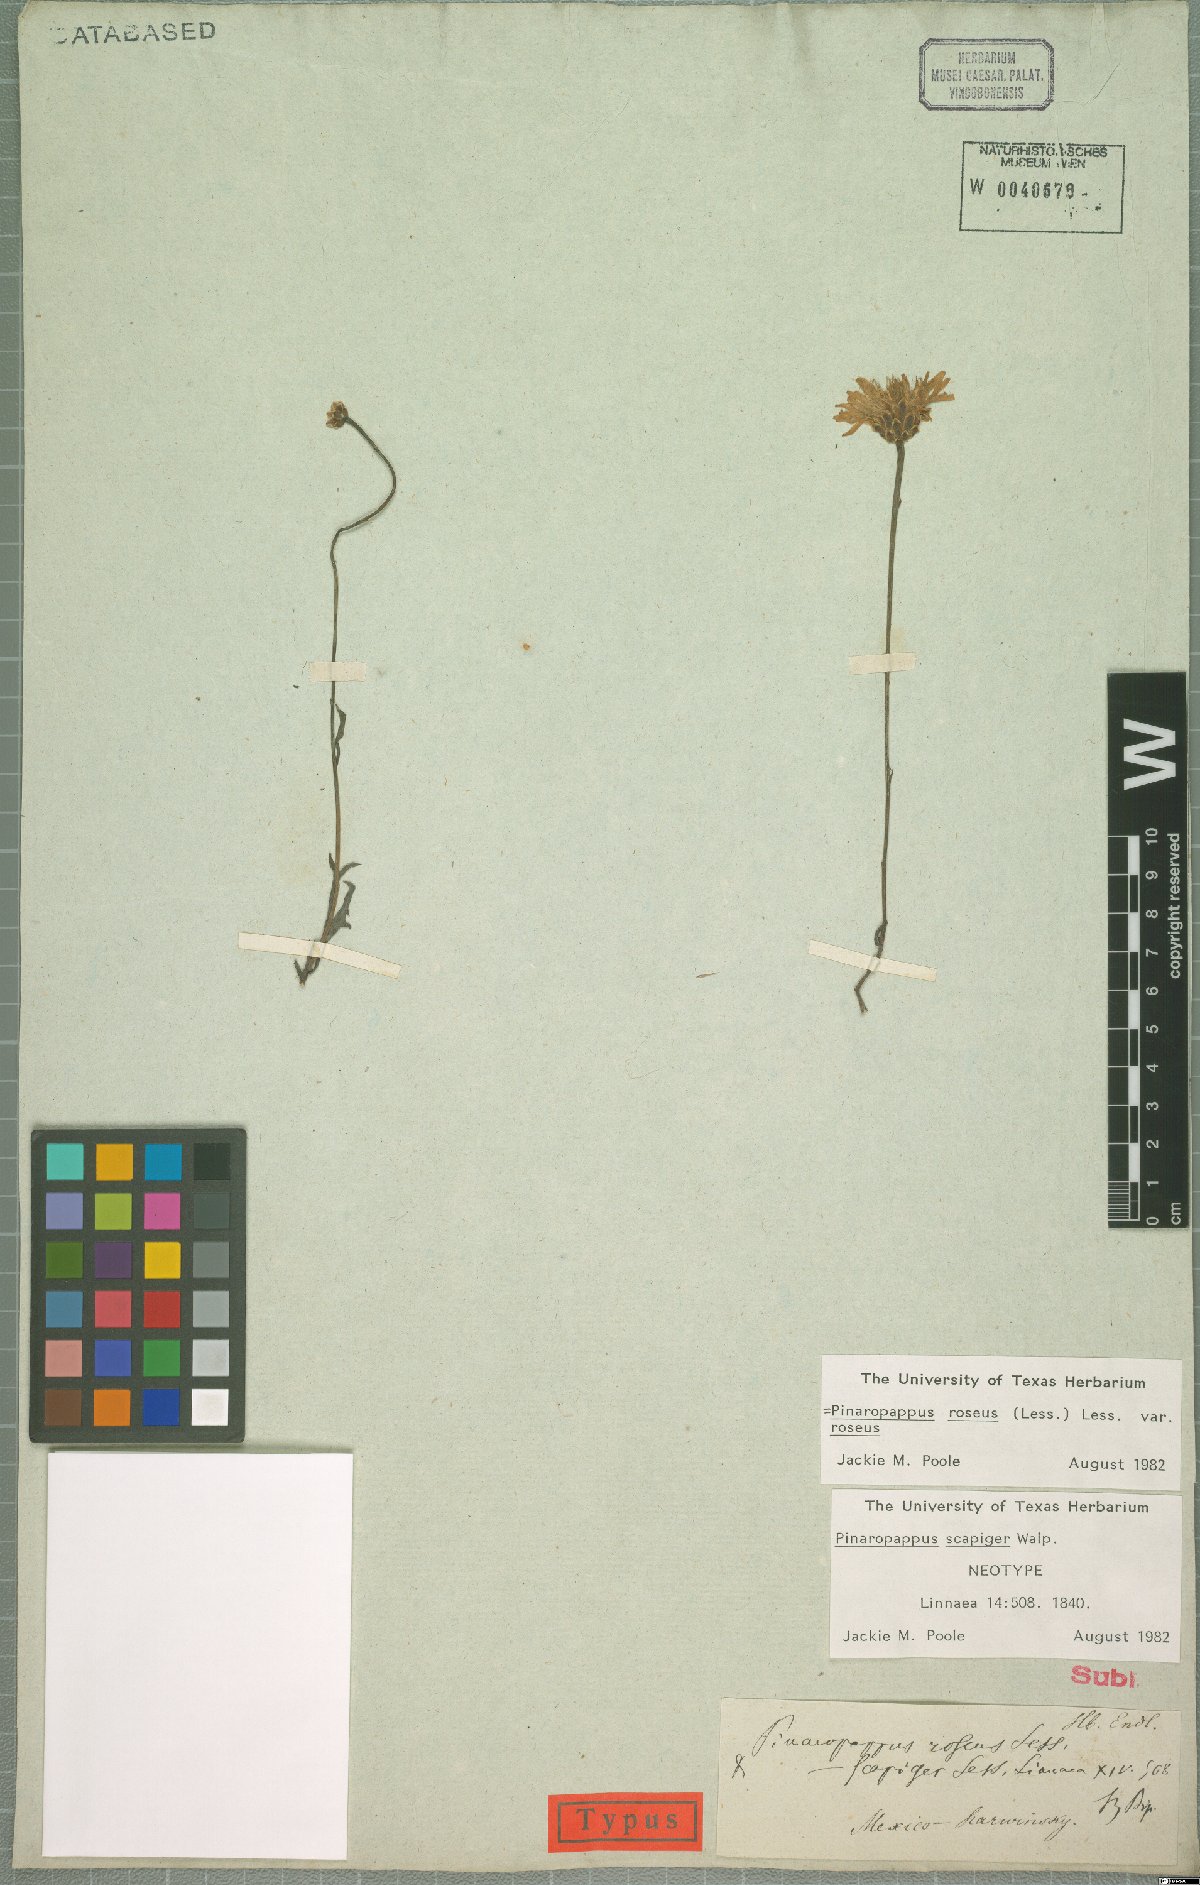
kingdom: Plantae
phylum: Tracheophyta
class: Magnoliopsida
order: Asterales
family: Asteraceae
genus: Pinaropappus
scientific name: Pinaropappus roseus
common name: Rock-lettuce
